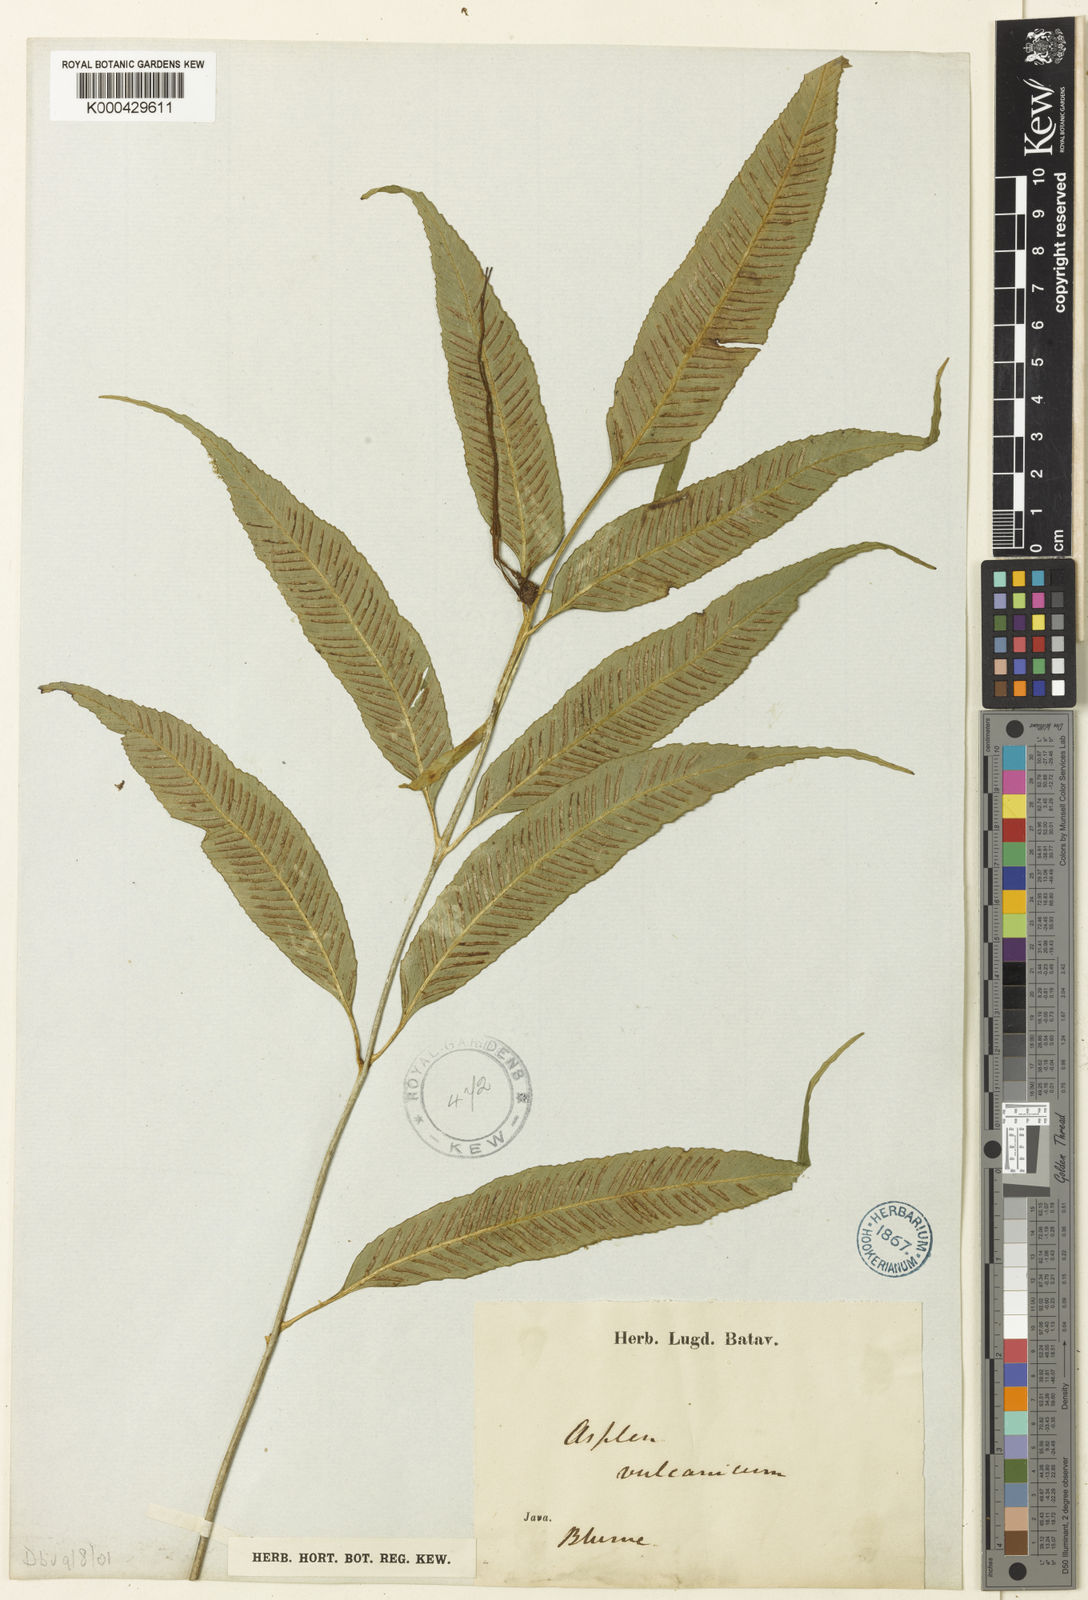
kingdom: Plantae
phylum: Tracheophyta
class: Polypodiopsida
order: Polypodiales
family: Aspleniaceae
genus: Asplenium
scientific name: Asplenium vulcanicum
